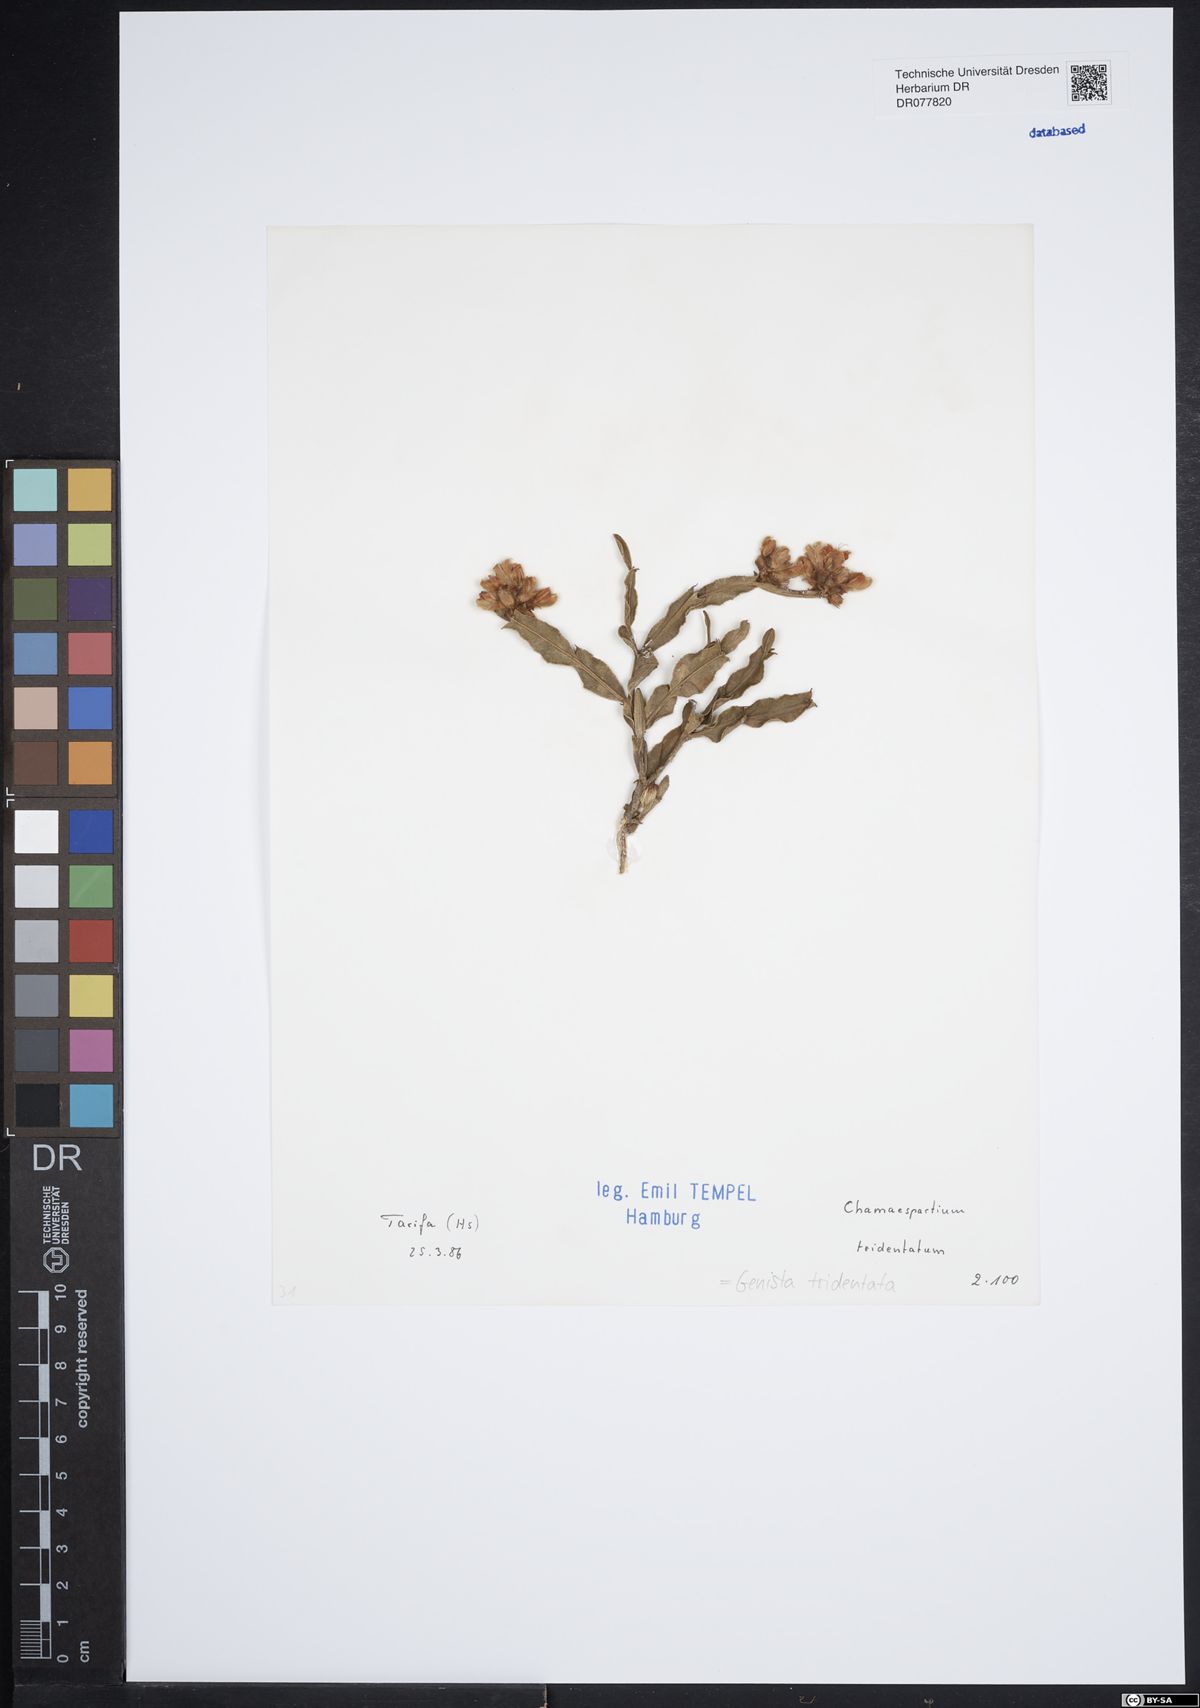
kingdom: Plantae
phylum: Tracheophyta
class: Magnoliopsida
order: Fabales
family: Fabaceae
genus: Genista
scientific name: Genista tridentata
